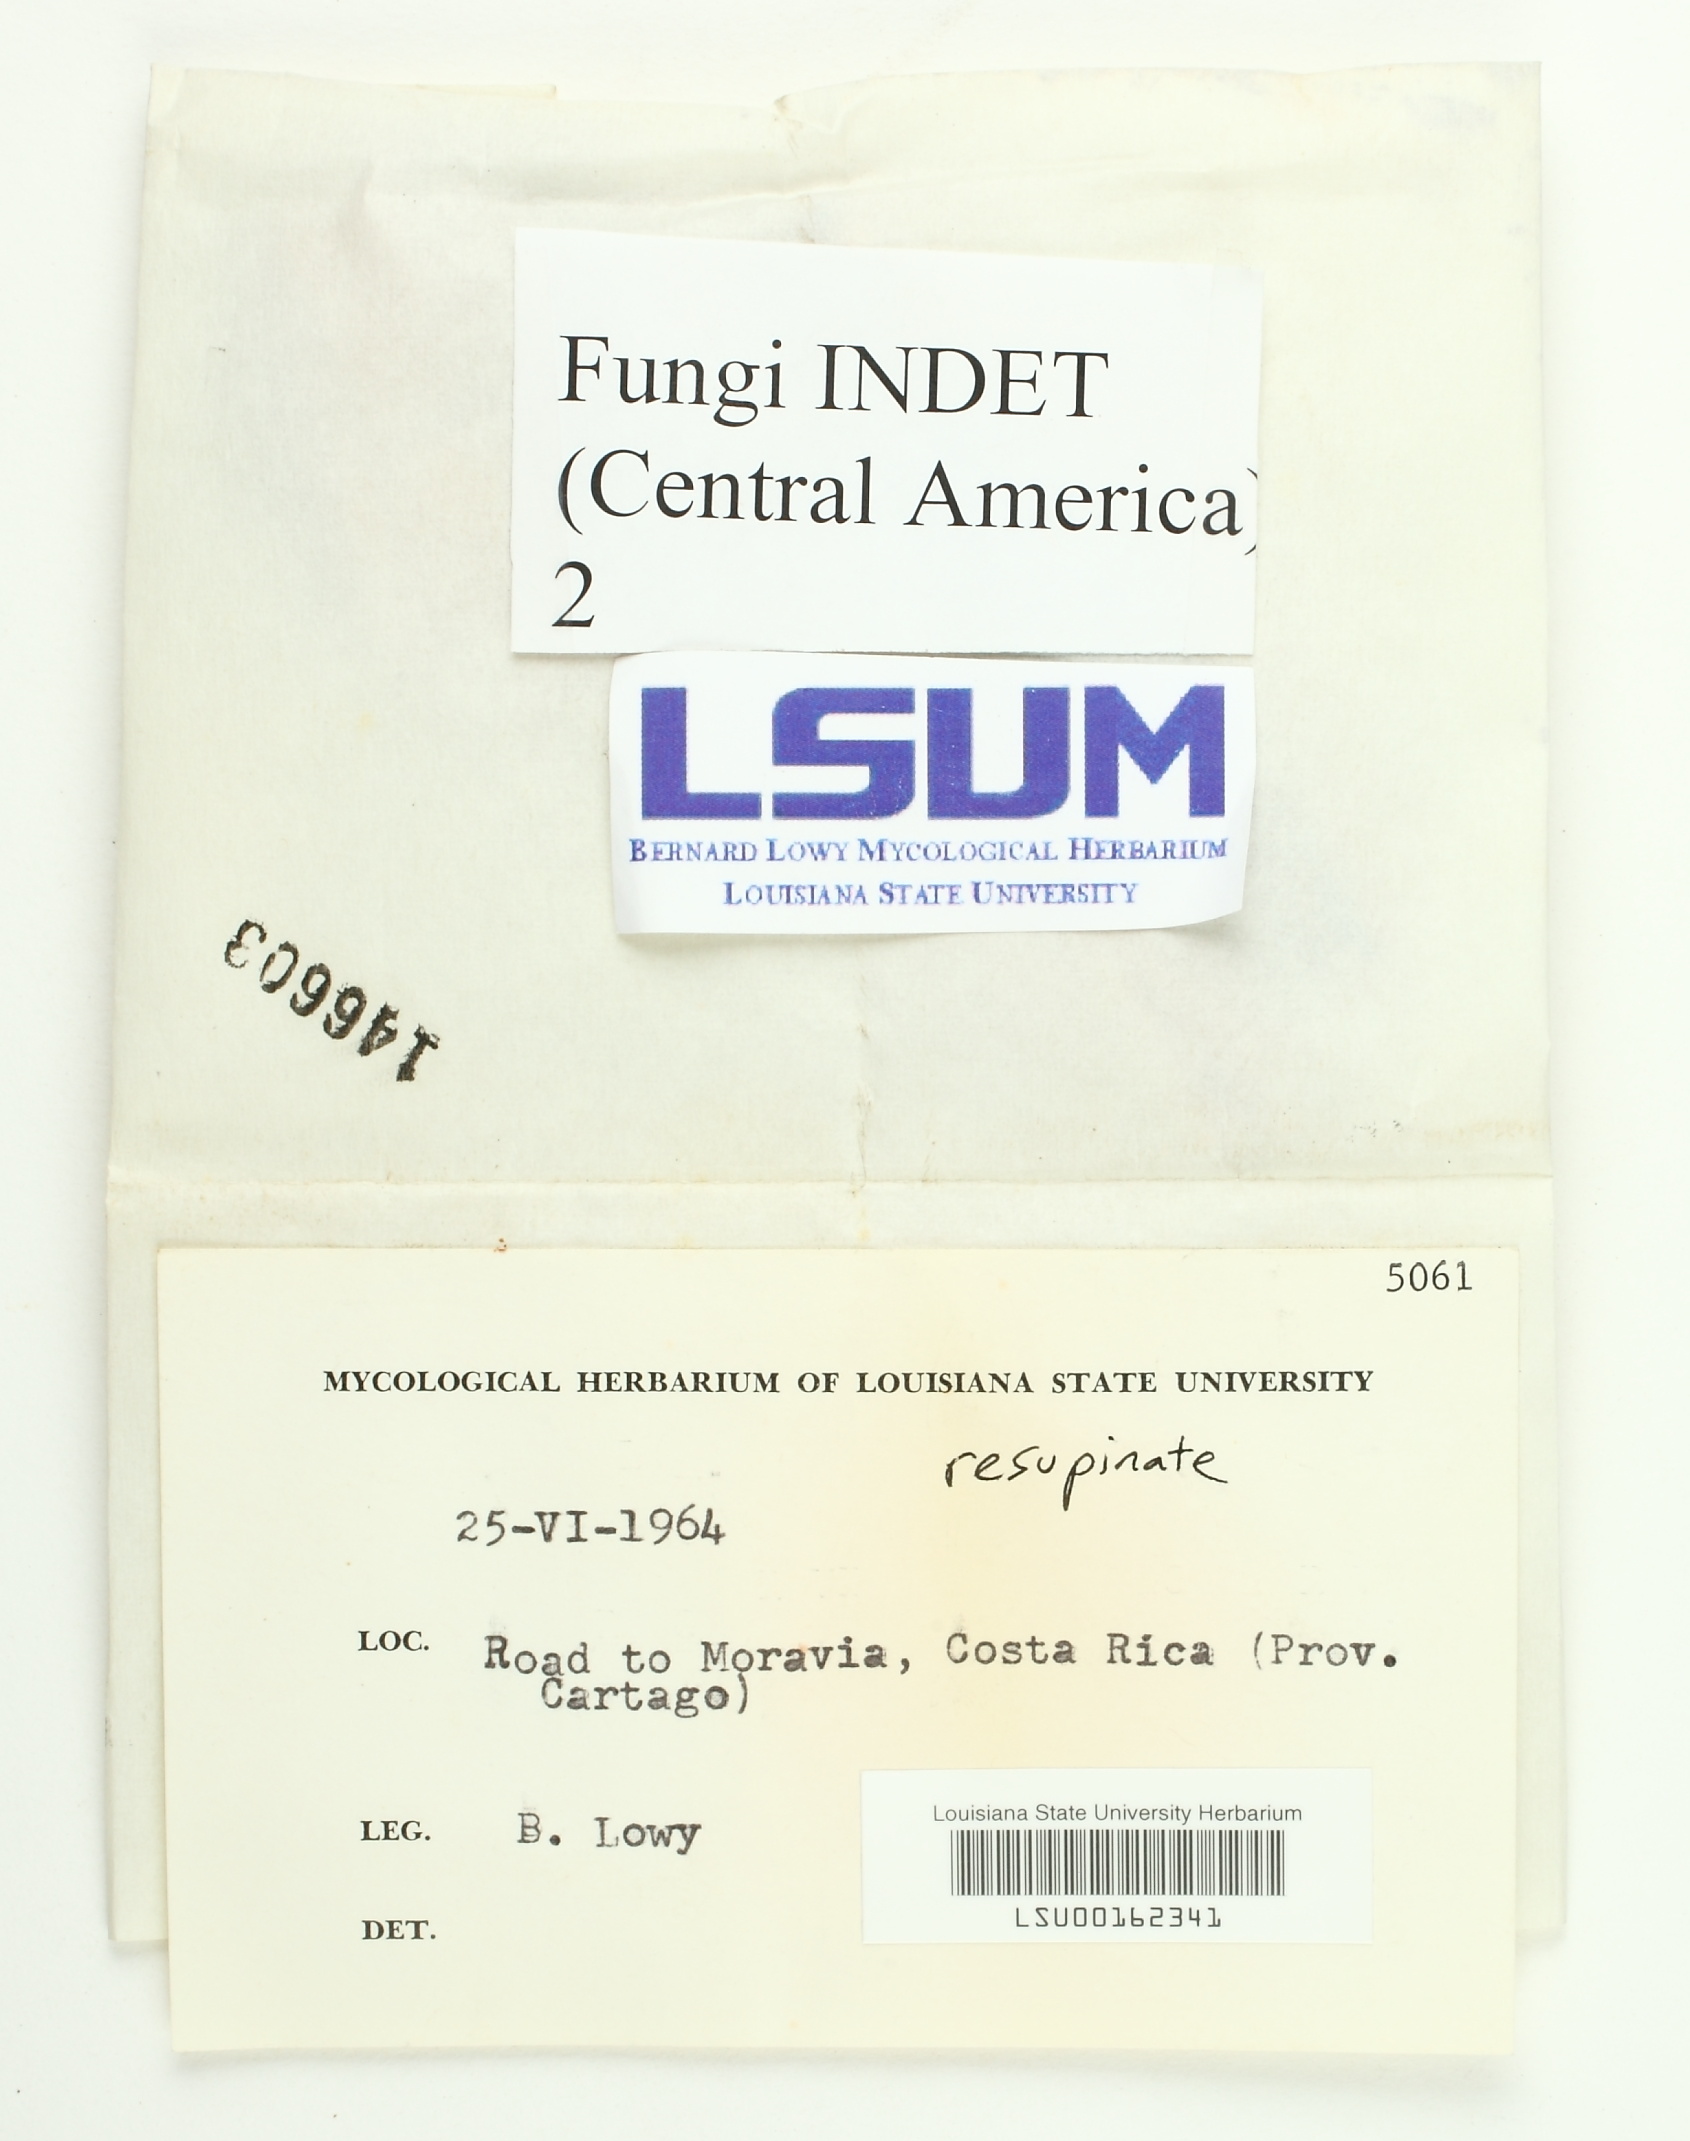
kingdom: Fungi
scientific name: Fungi
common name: Fungi
